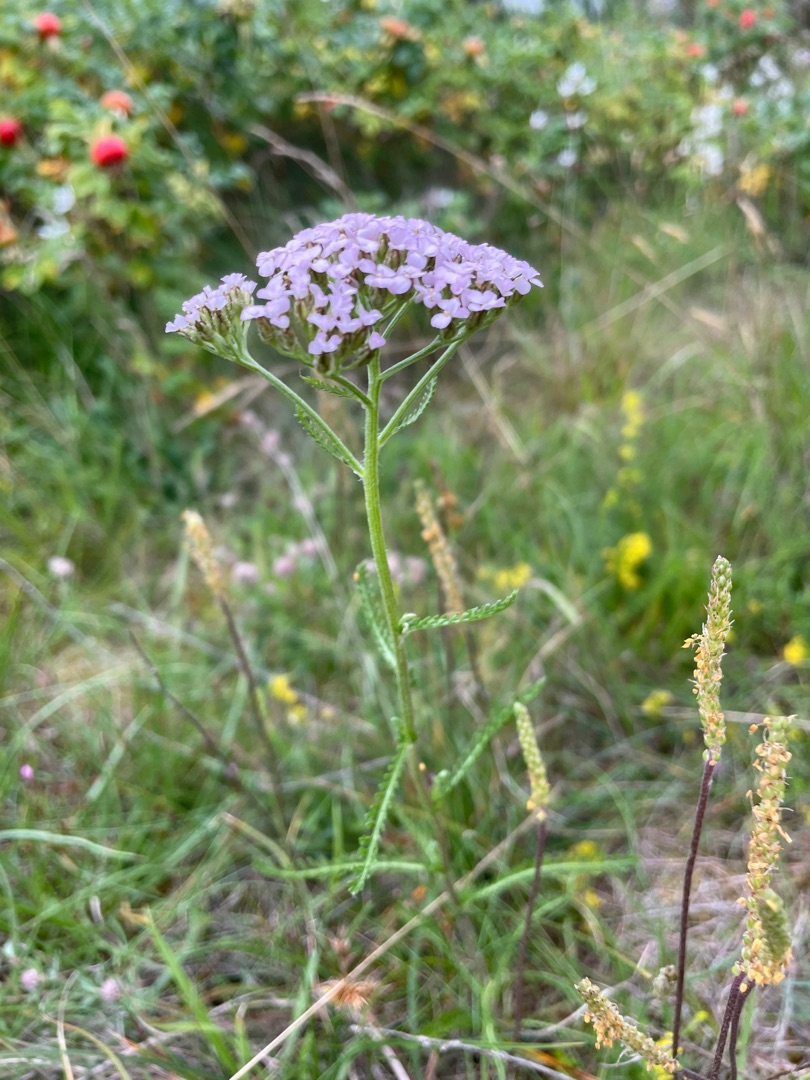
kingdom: Plantae
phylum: Tracheophyta
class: Magnoliopsida
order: Asterales
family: Asteraceae
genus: Achillea
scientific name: Achillea millefolium
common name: Almindelig røllike
